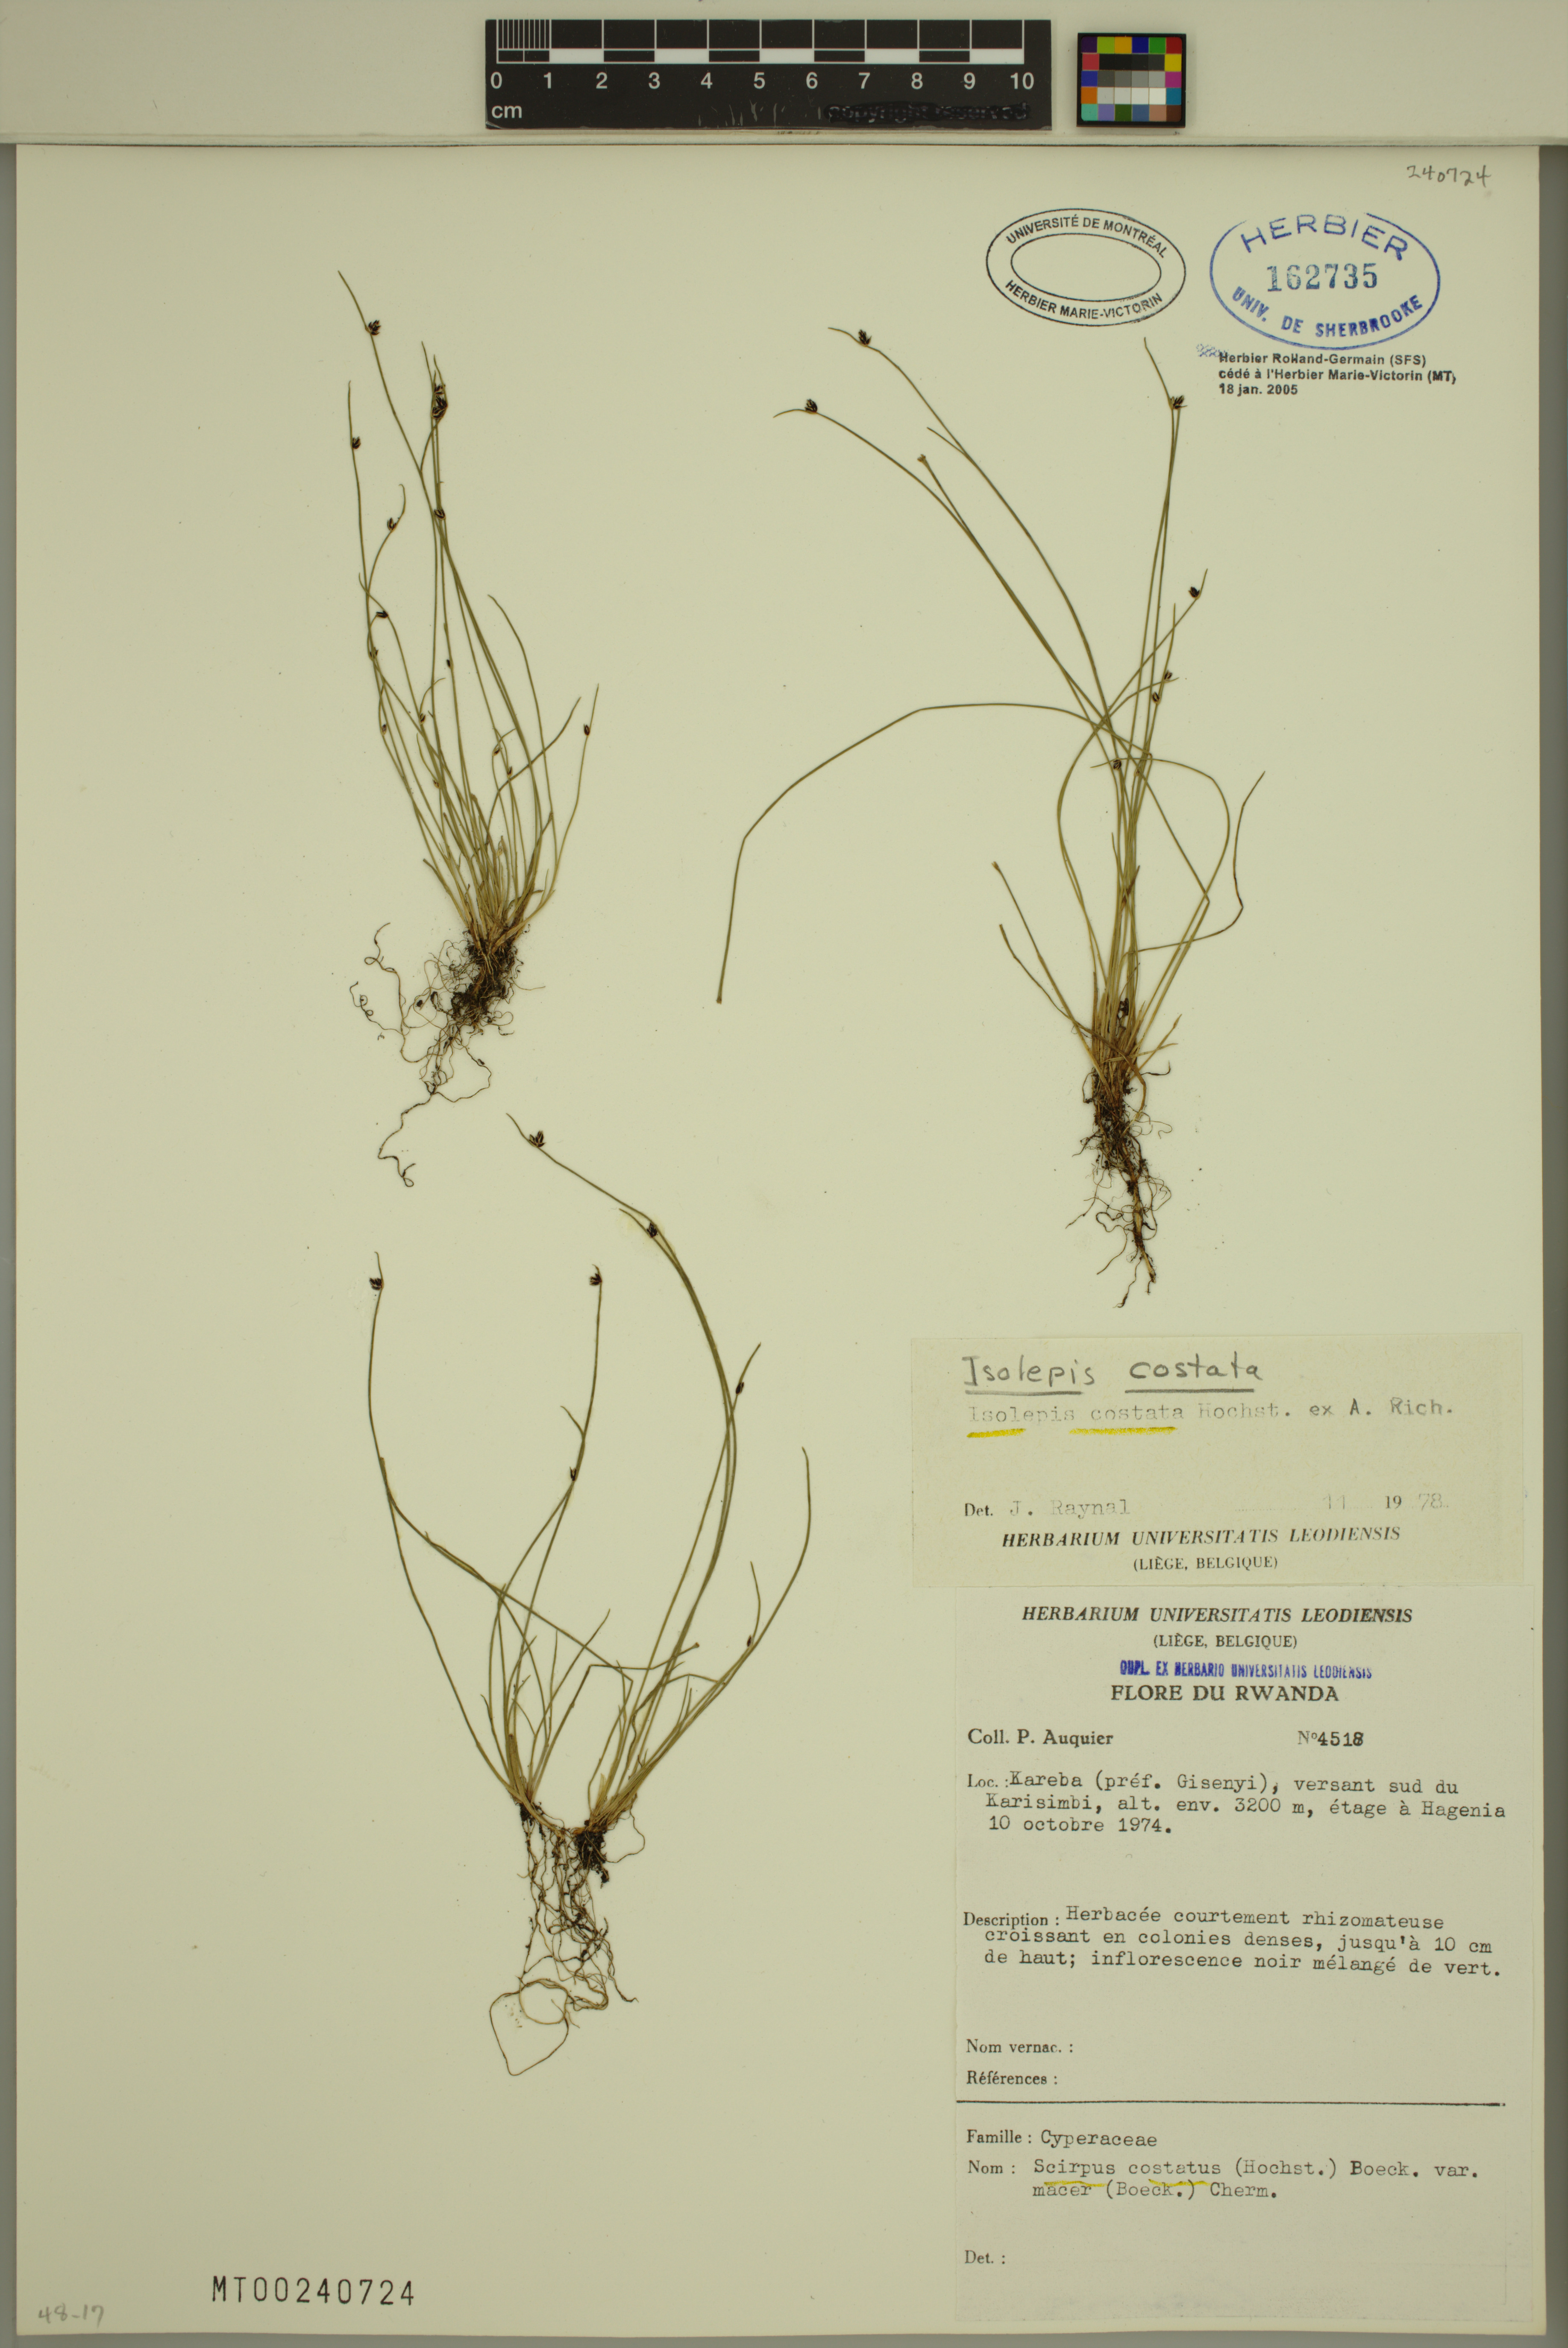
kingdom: Plantae
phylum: Tracheophyta
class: Liliopsida
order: Poales
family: Cyperaceae
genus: Isolepis
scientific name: Isolepis costata
